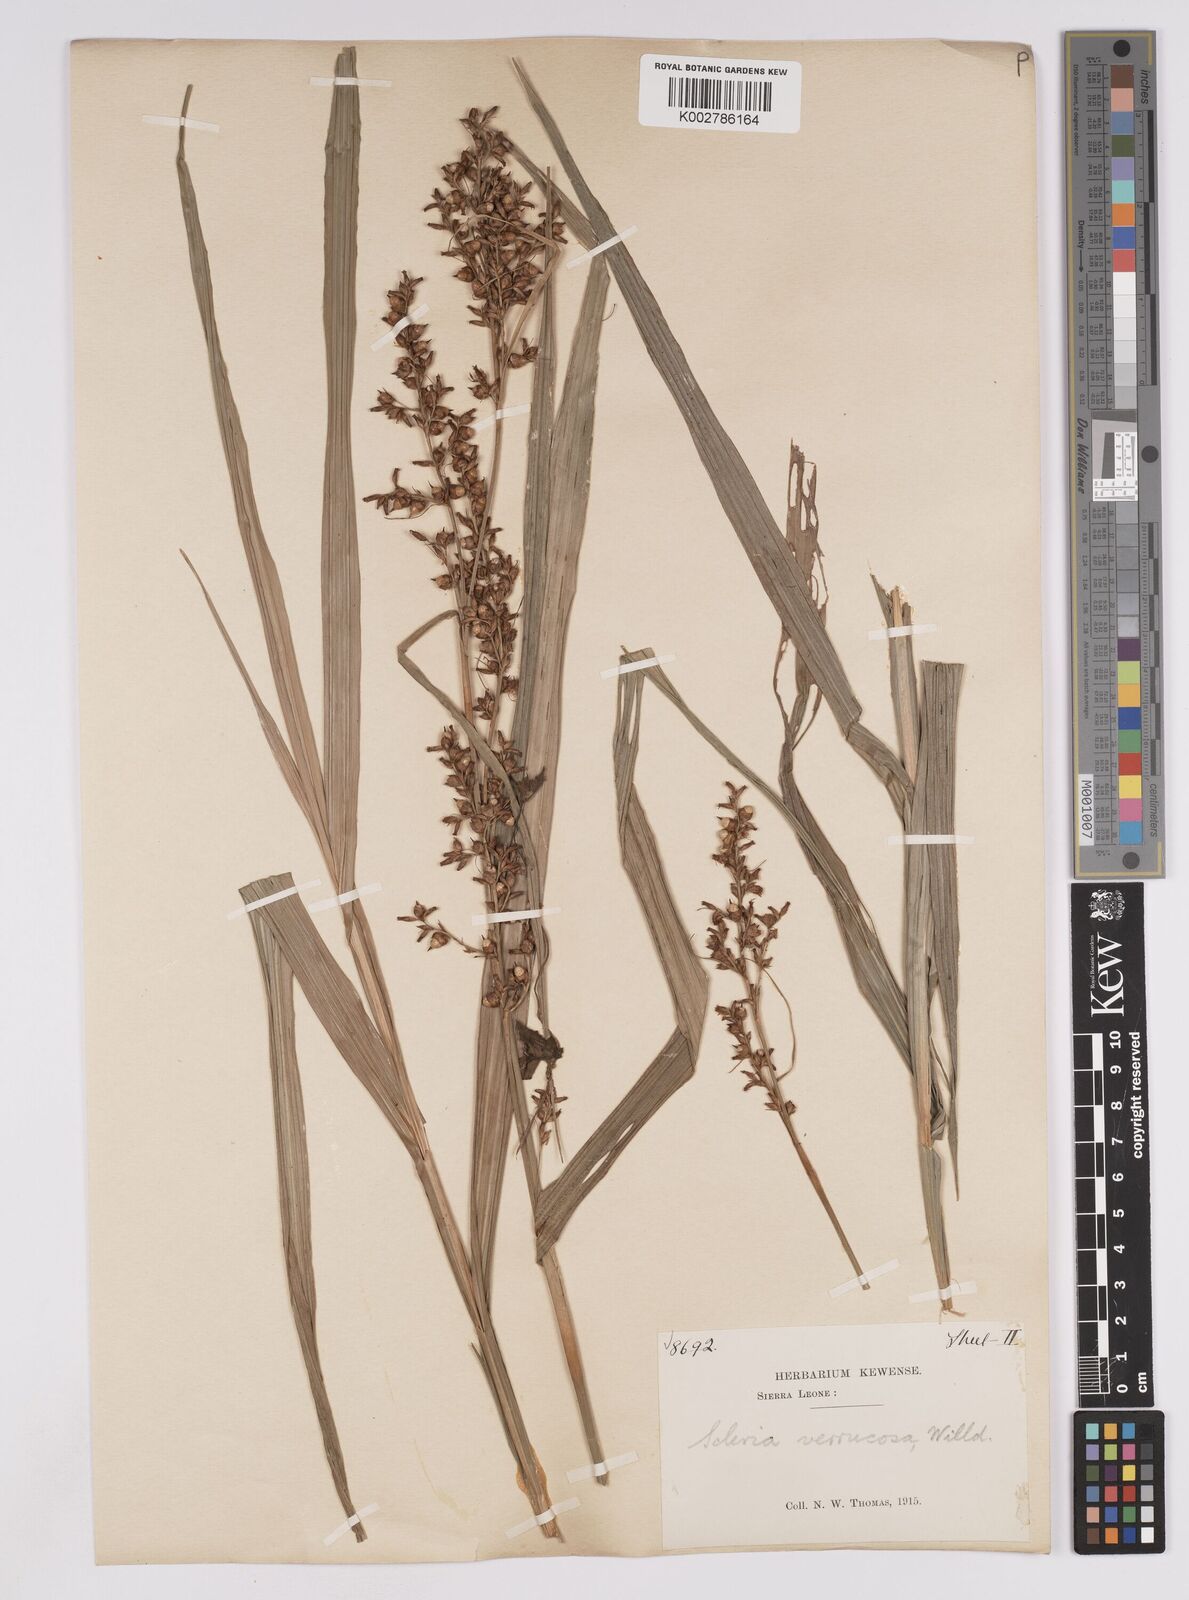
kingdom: Plantae
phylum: Tracheophyta
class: Liliopsida
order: Poales
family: Cyperaceae
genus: Scleria
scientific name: Scleria verrucosa
